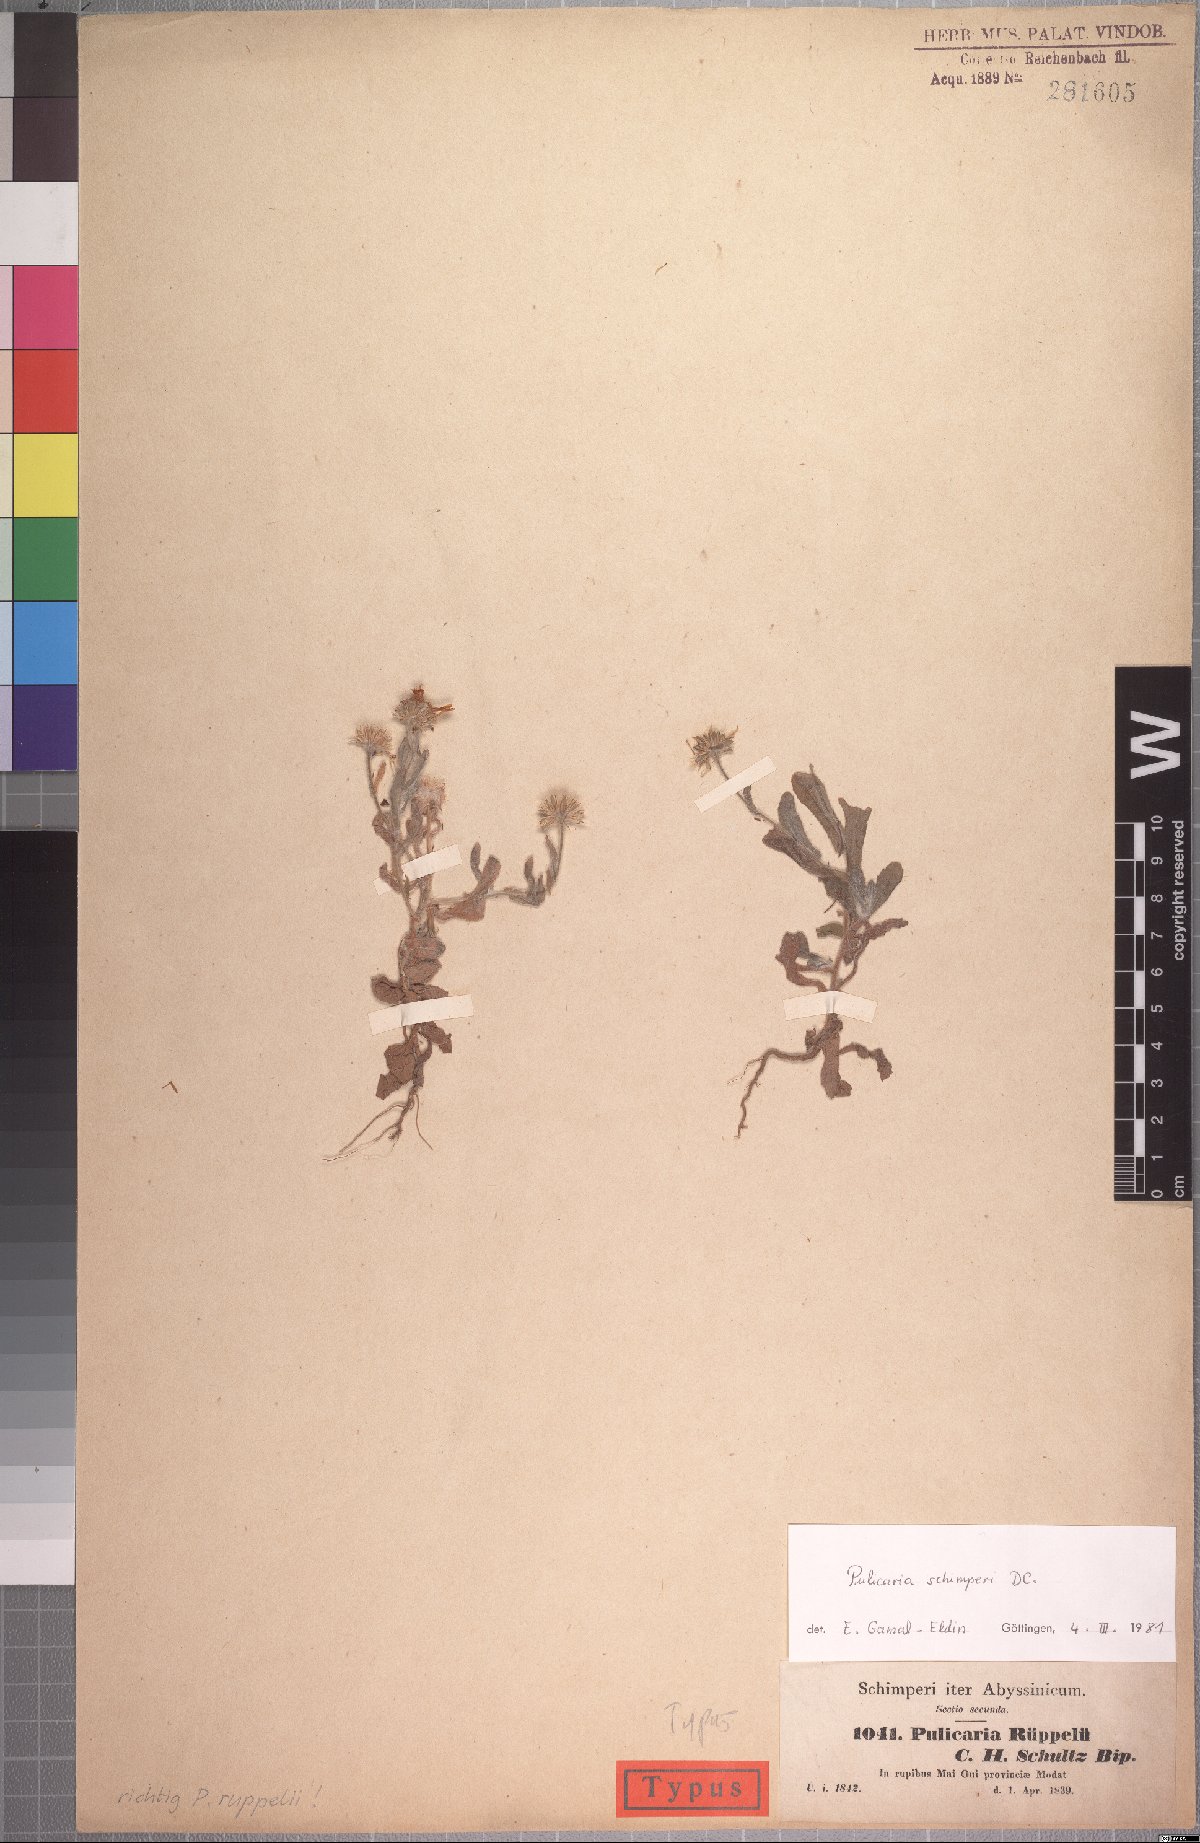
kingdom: Plantae
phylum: Tracheophyta
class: Magnoliopsida
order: Asterales
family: Asteraceae
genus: Pulicaria
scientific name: Pulicaria schimperi
